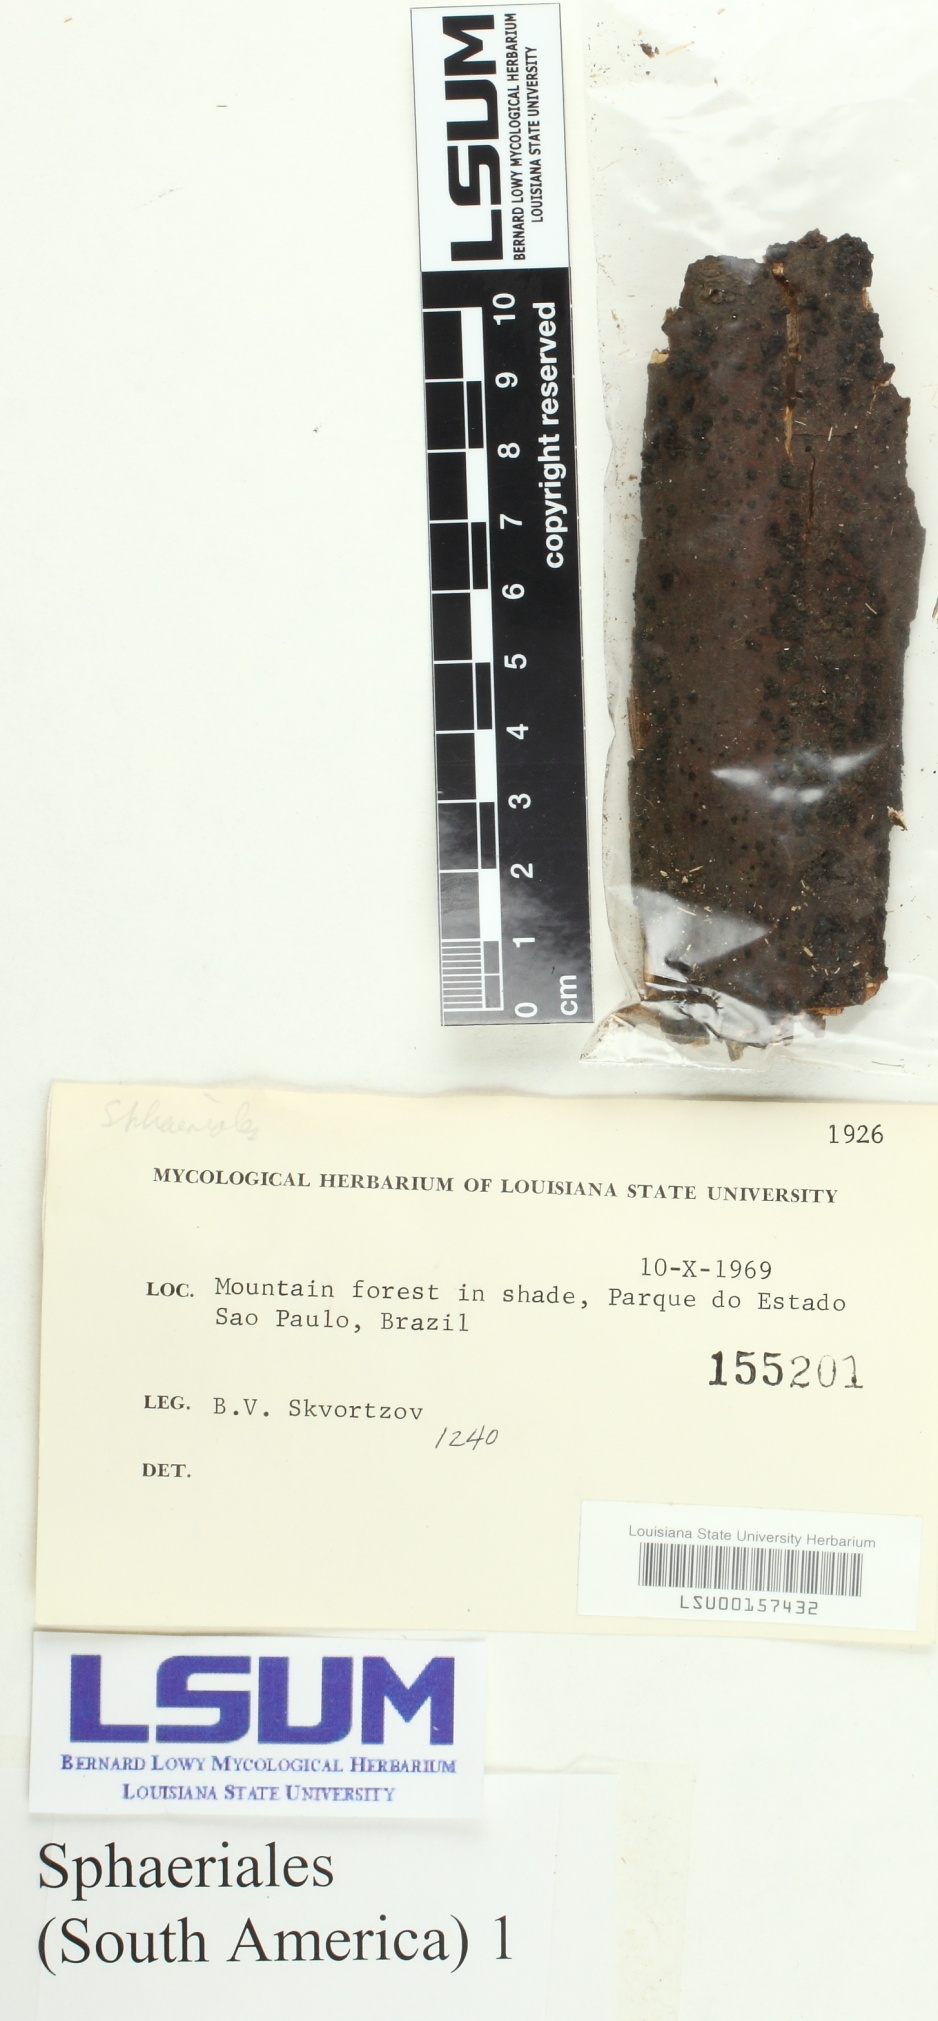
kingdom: Fungi
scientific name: Fungi
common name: Fungi
